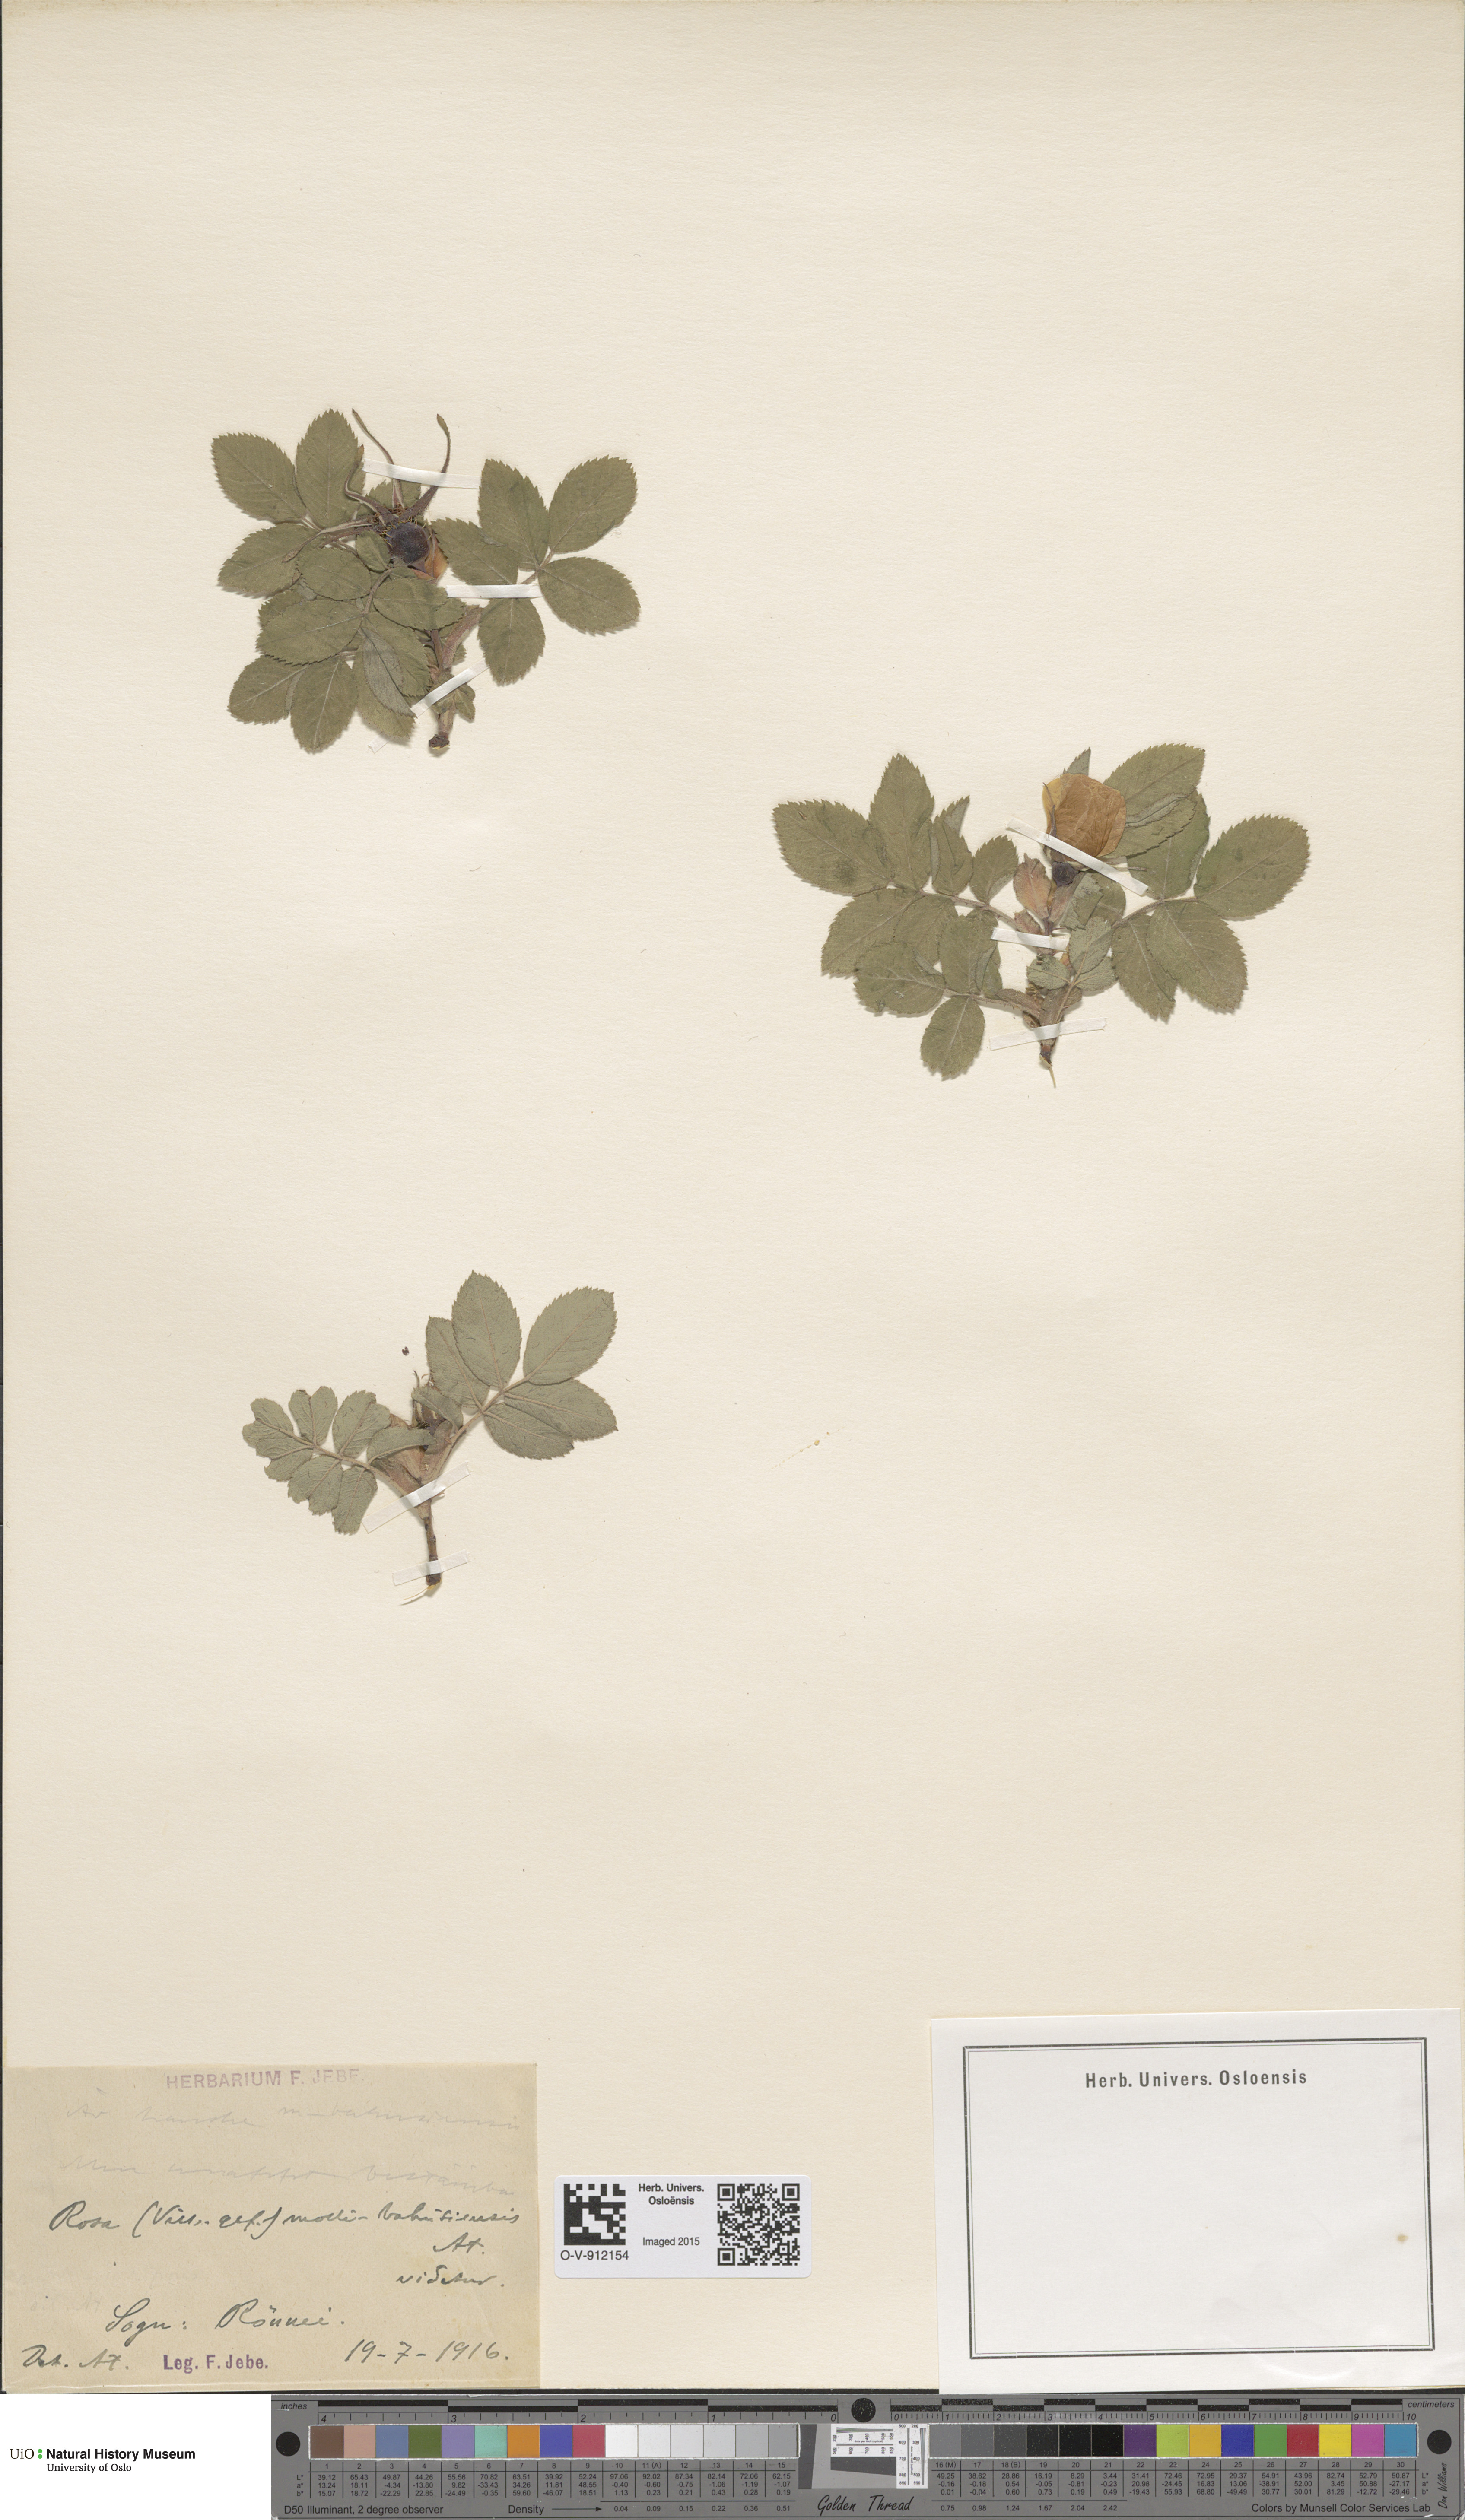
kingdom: Plantae
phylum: Tracheophyta
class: Magnoliopsida
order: Rosales
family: Rosaceae
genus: Rosa
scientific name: Rosa mollis
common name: Rose
